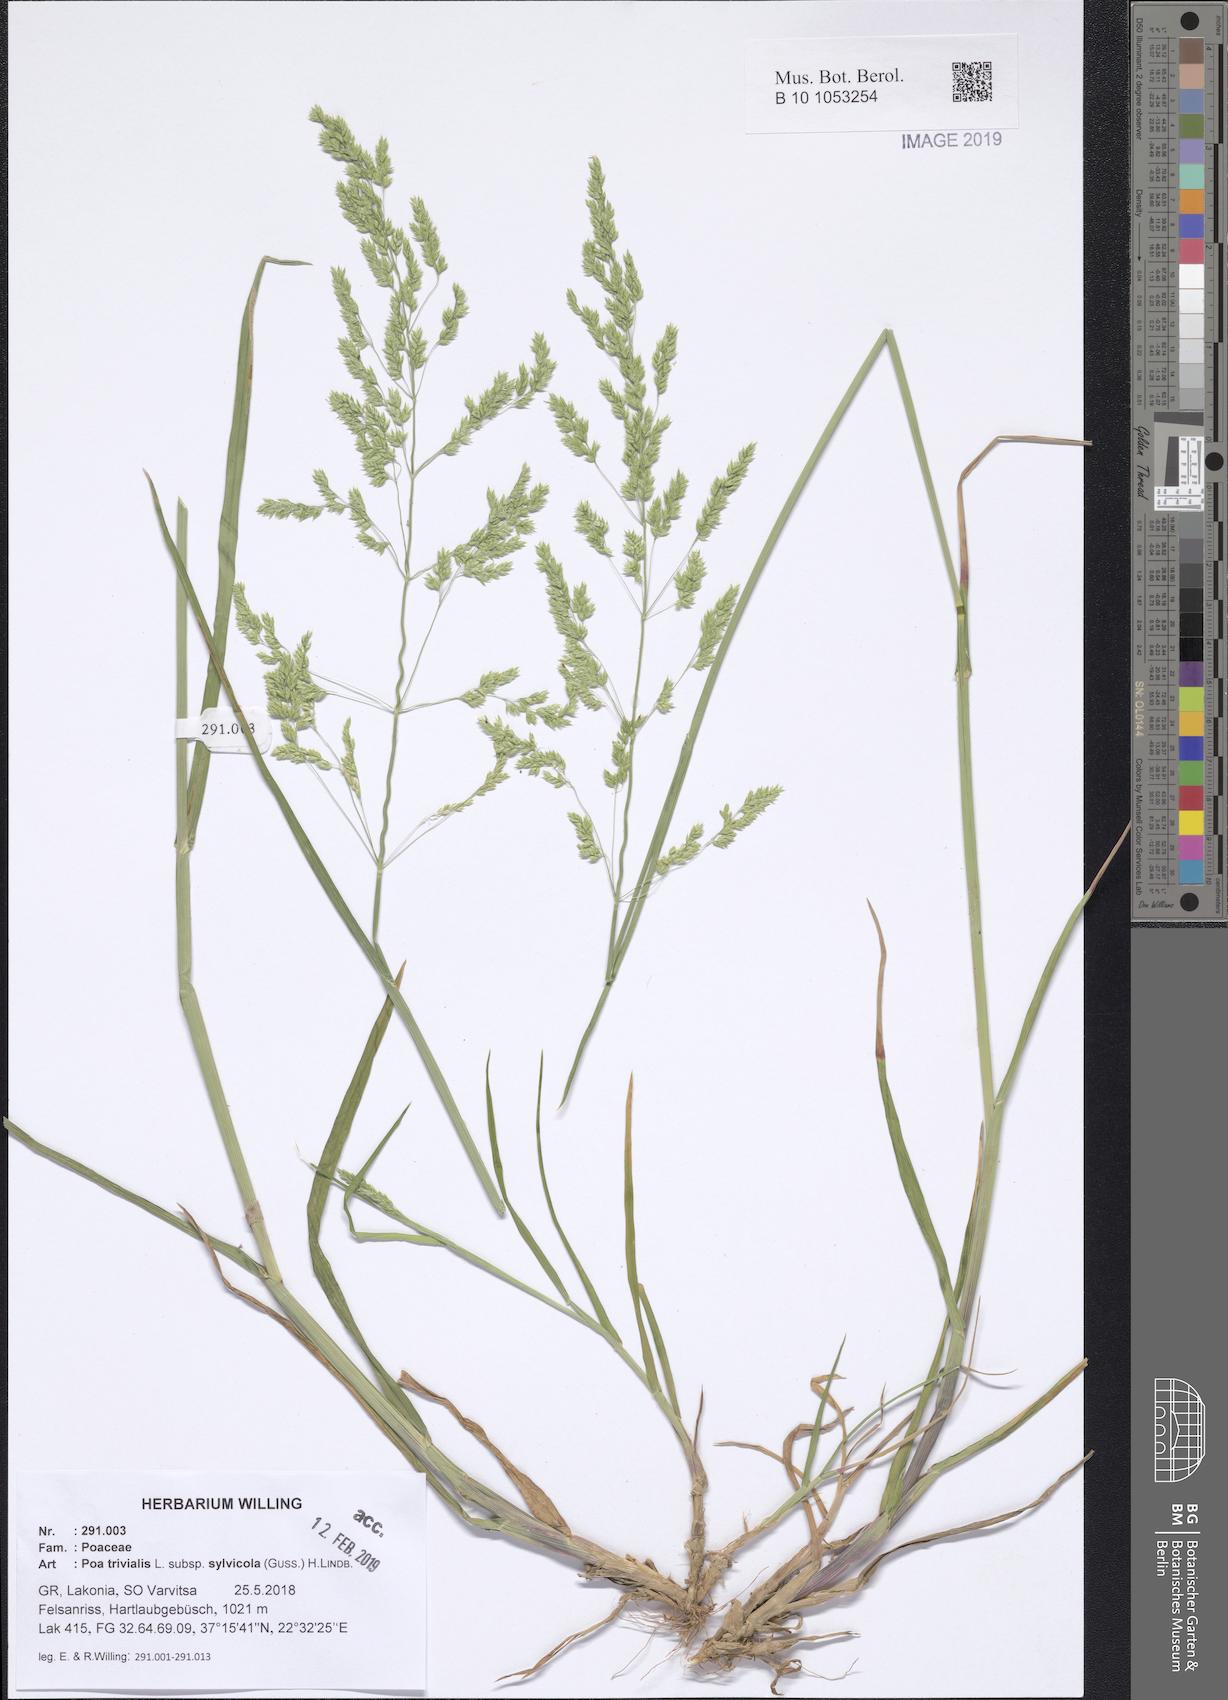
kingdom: Plantae
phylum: Tracheophyta
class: Liliopsida
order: Poales
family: Poaceae
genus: Poa
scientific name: Poa trivialis
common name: Rough bluegrass
